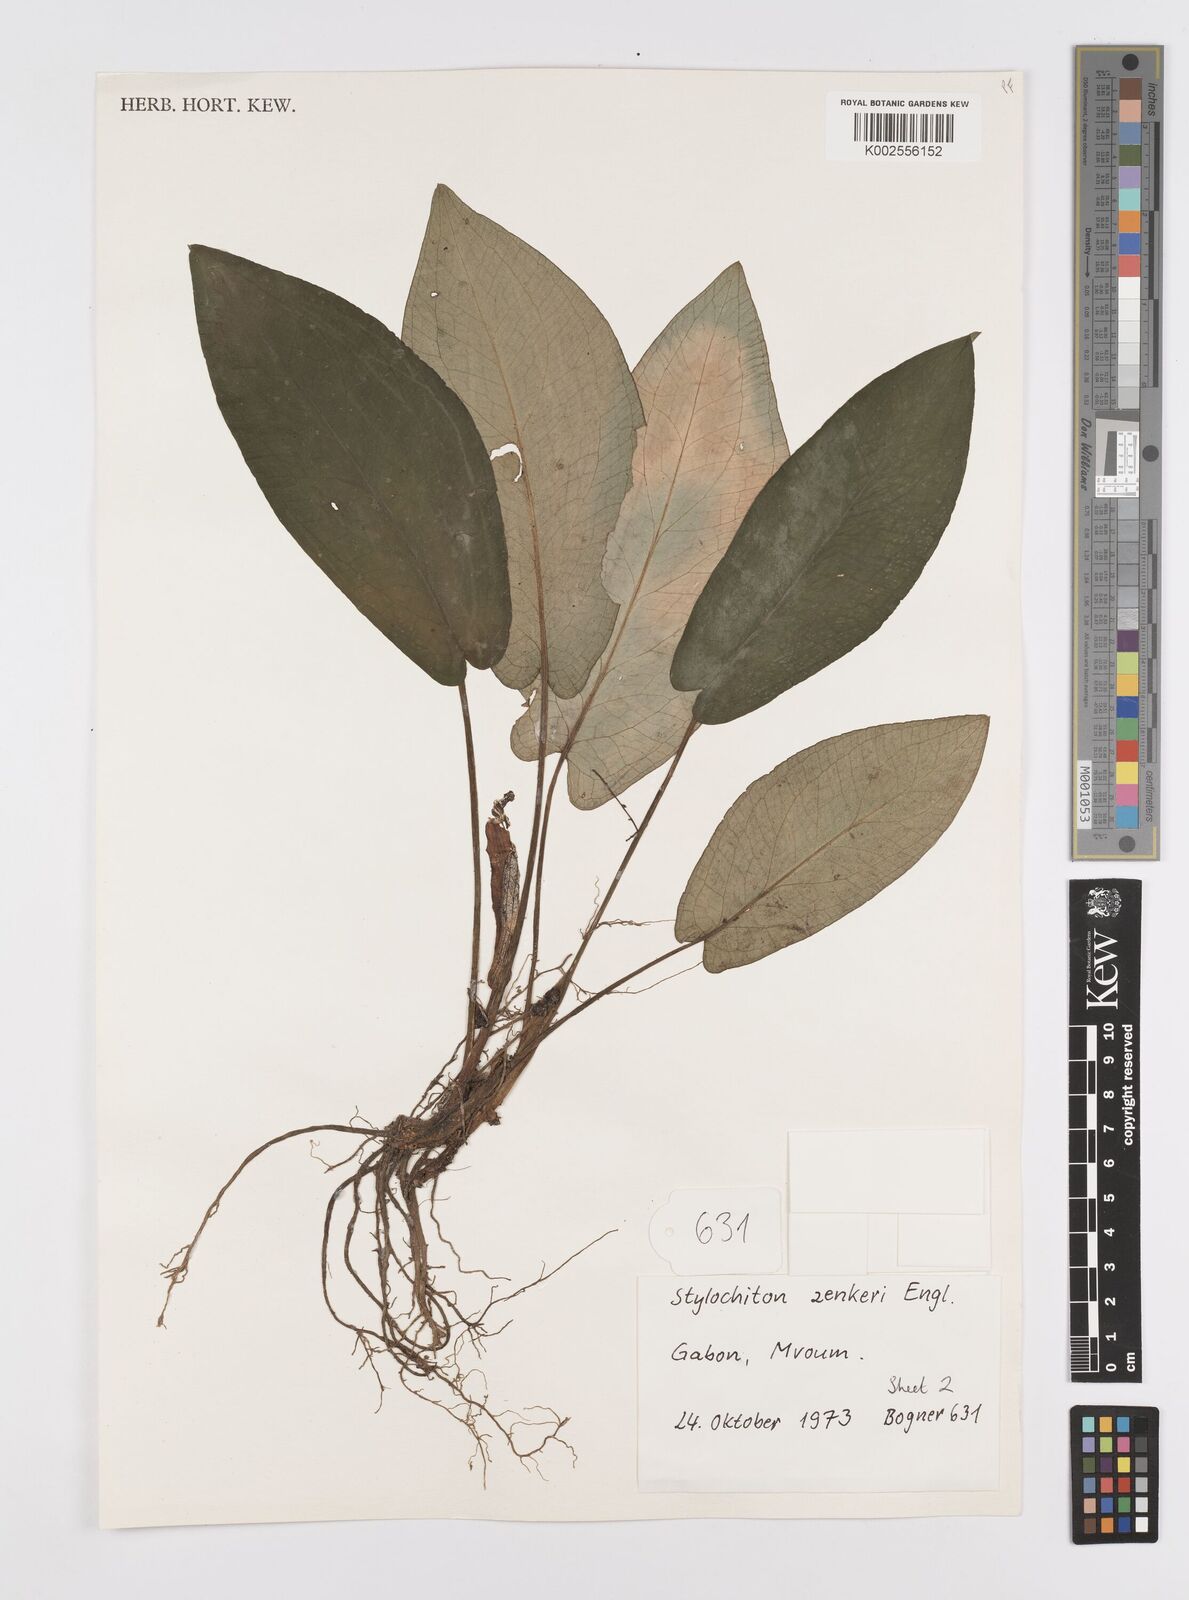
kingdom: Plantae
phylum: Tracheophyta
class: Liliopsida
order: Alismatales
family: Araceae
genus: Stylochaeton
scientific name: Stylochaeton zenkeri
